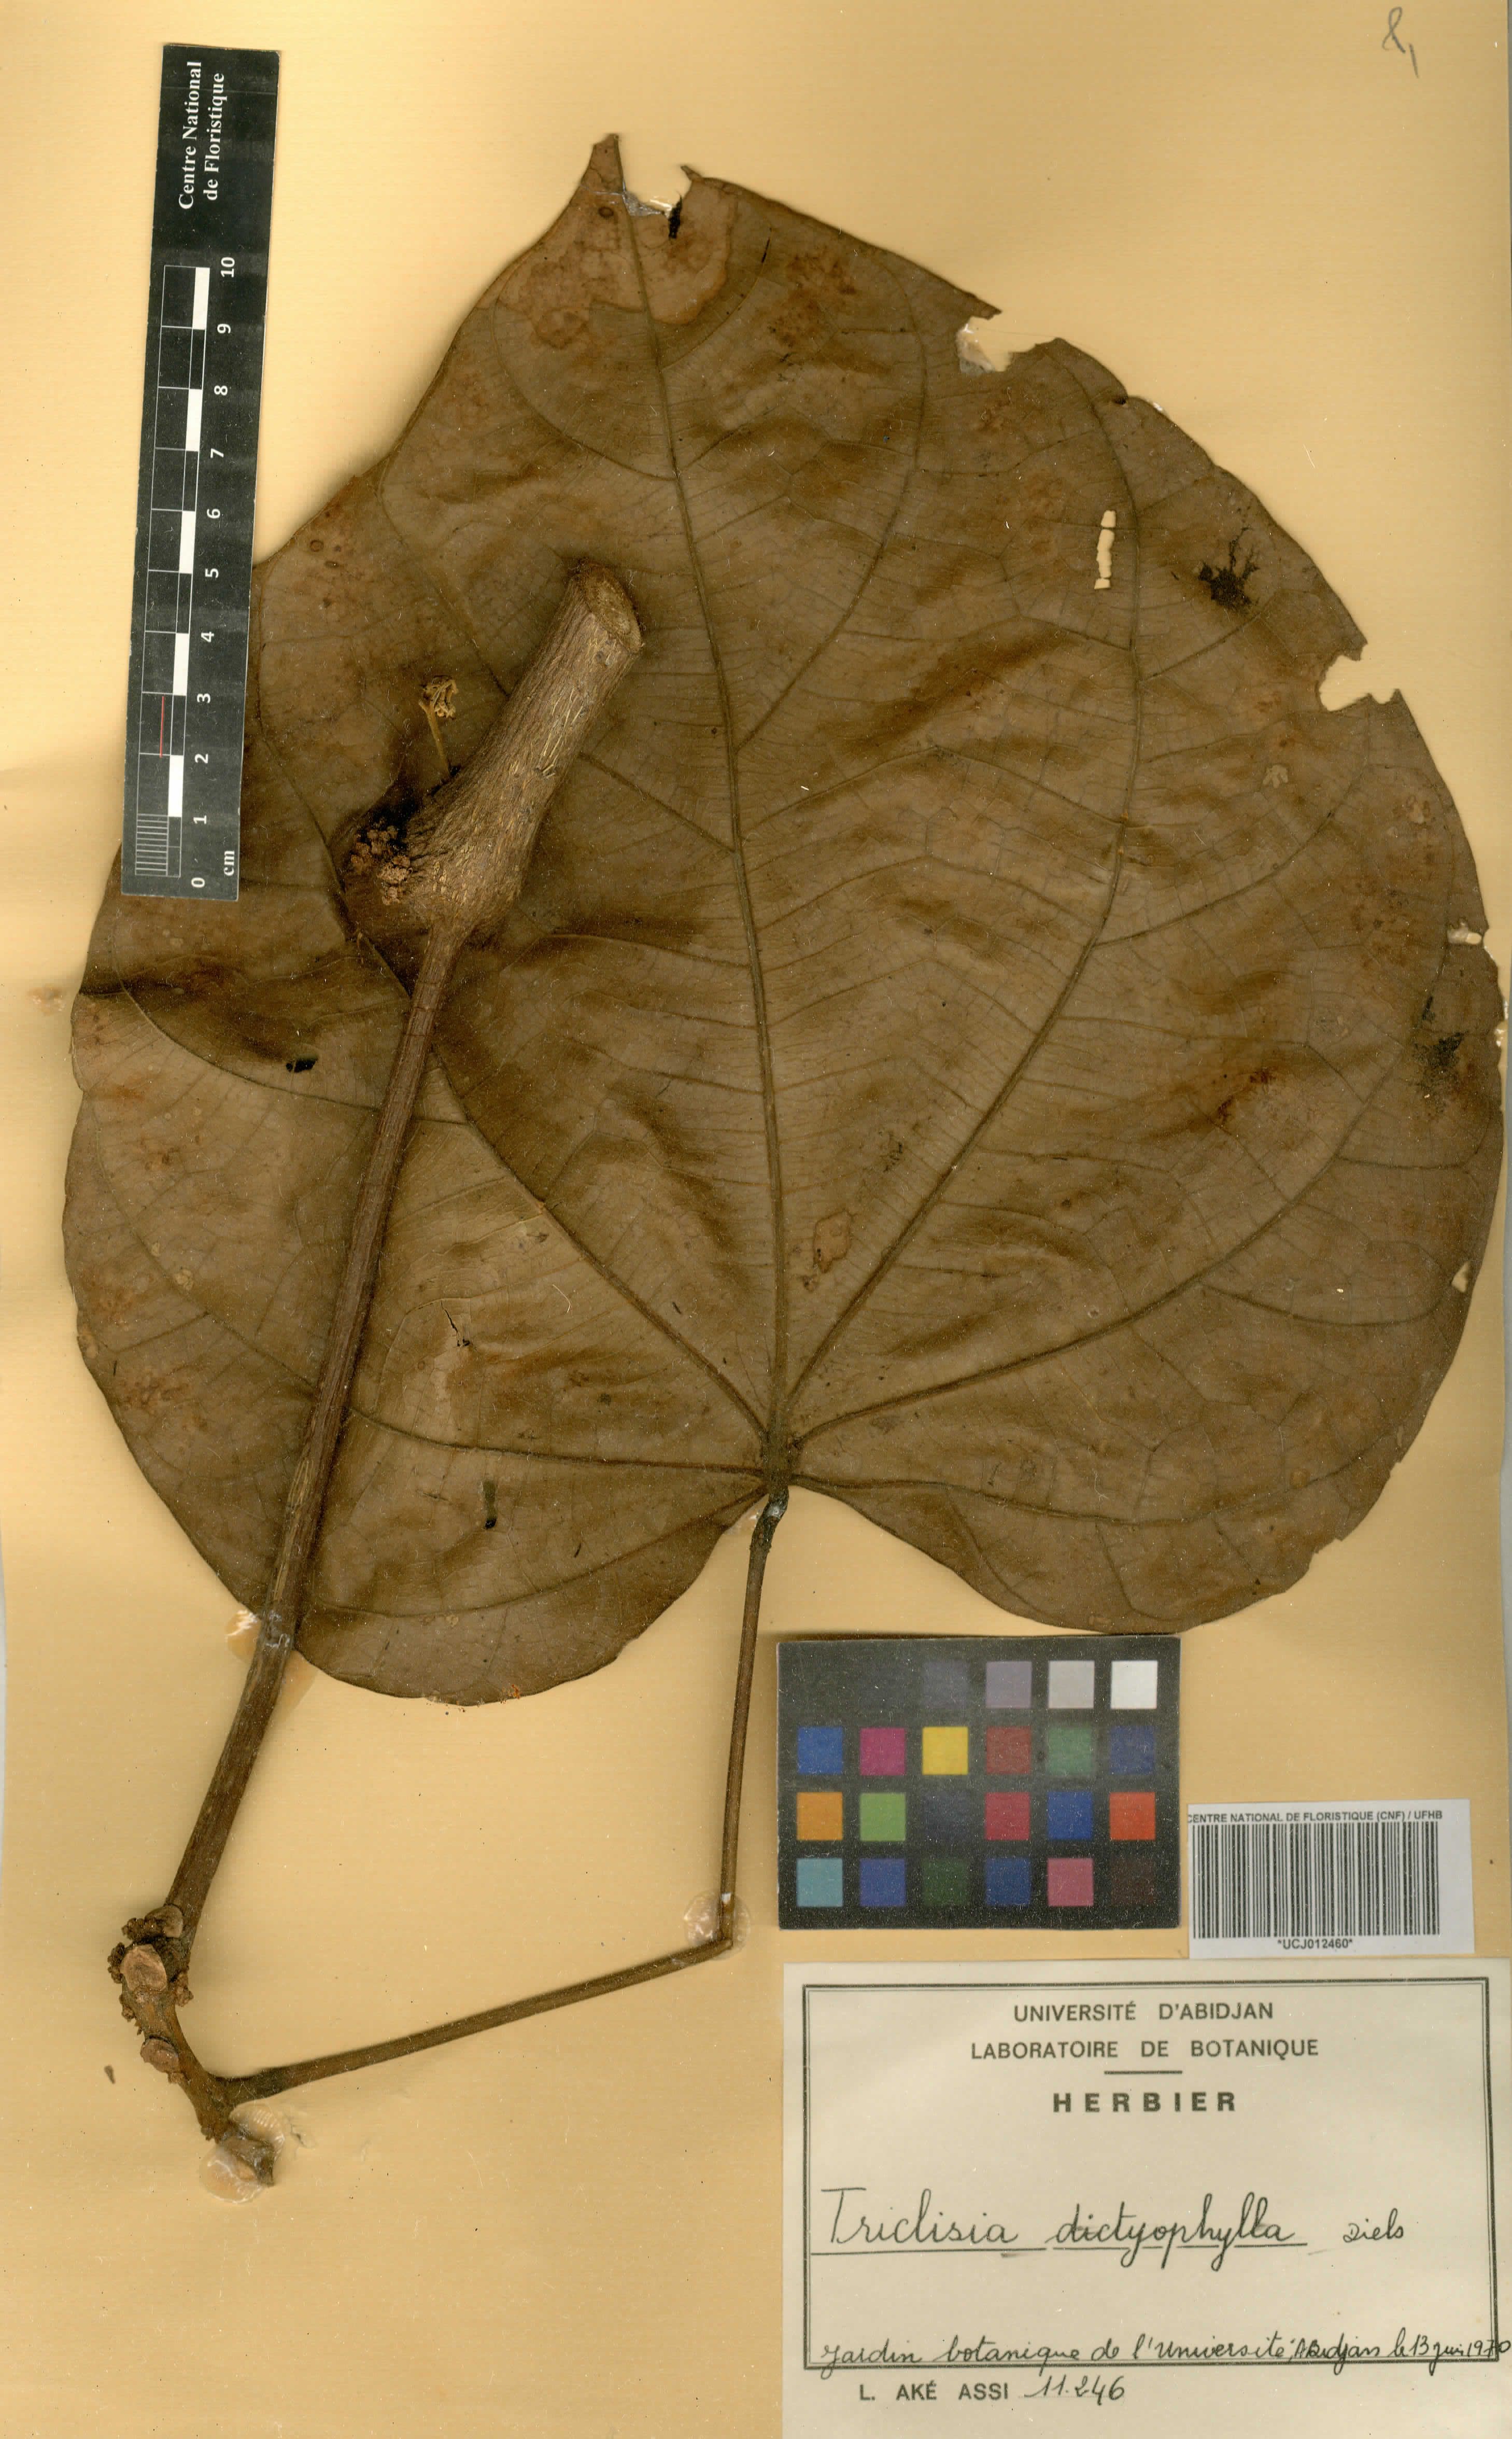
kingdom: Plantae
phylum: Tracheophyta
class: Magnoliopsida
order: Ranunculales
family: Menispermaceae
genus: Triclisia
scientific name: Triclisia dictyophylla
